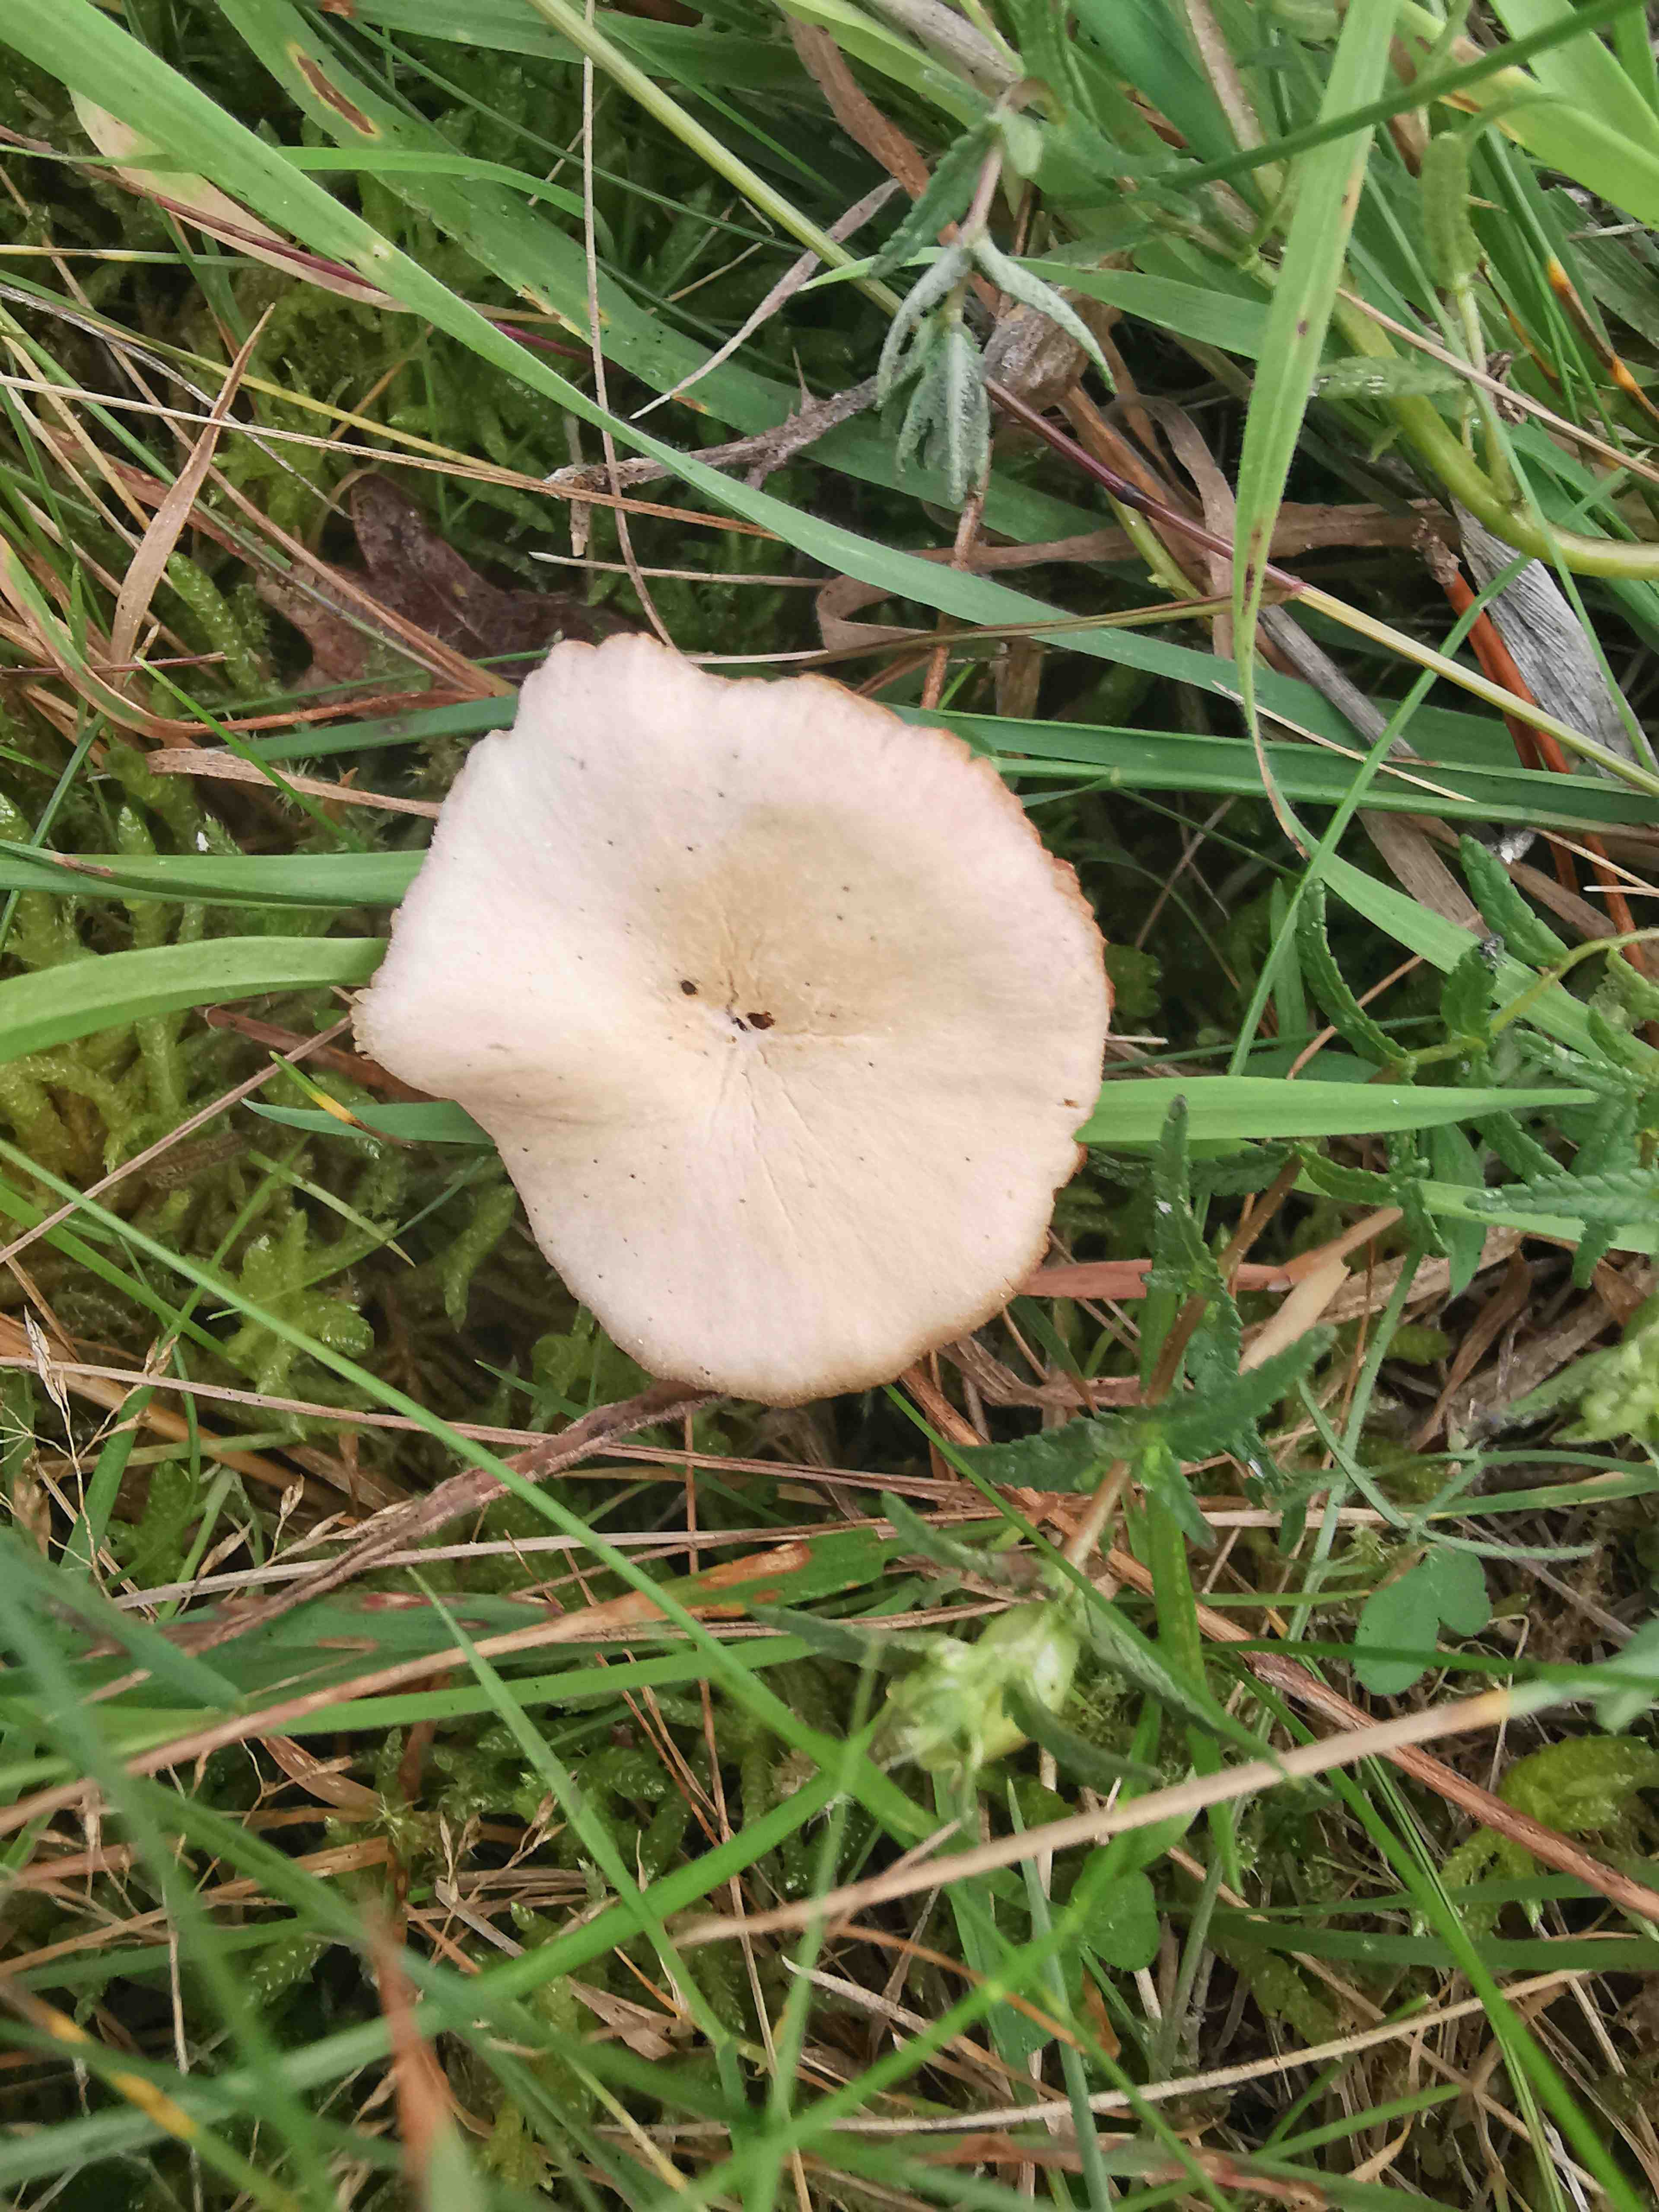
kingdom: Fungi
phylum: Basidiomycota
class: Agaricomycetes
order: Agaricales
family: Hydnangiaceae
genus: Laccaria
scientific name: Laccaria laccata
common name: rød ametysthat
